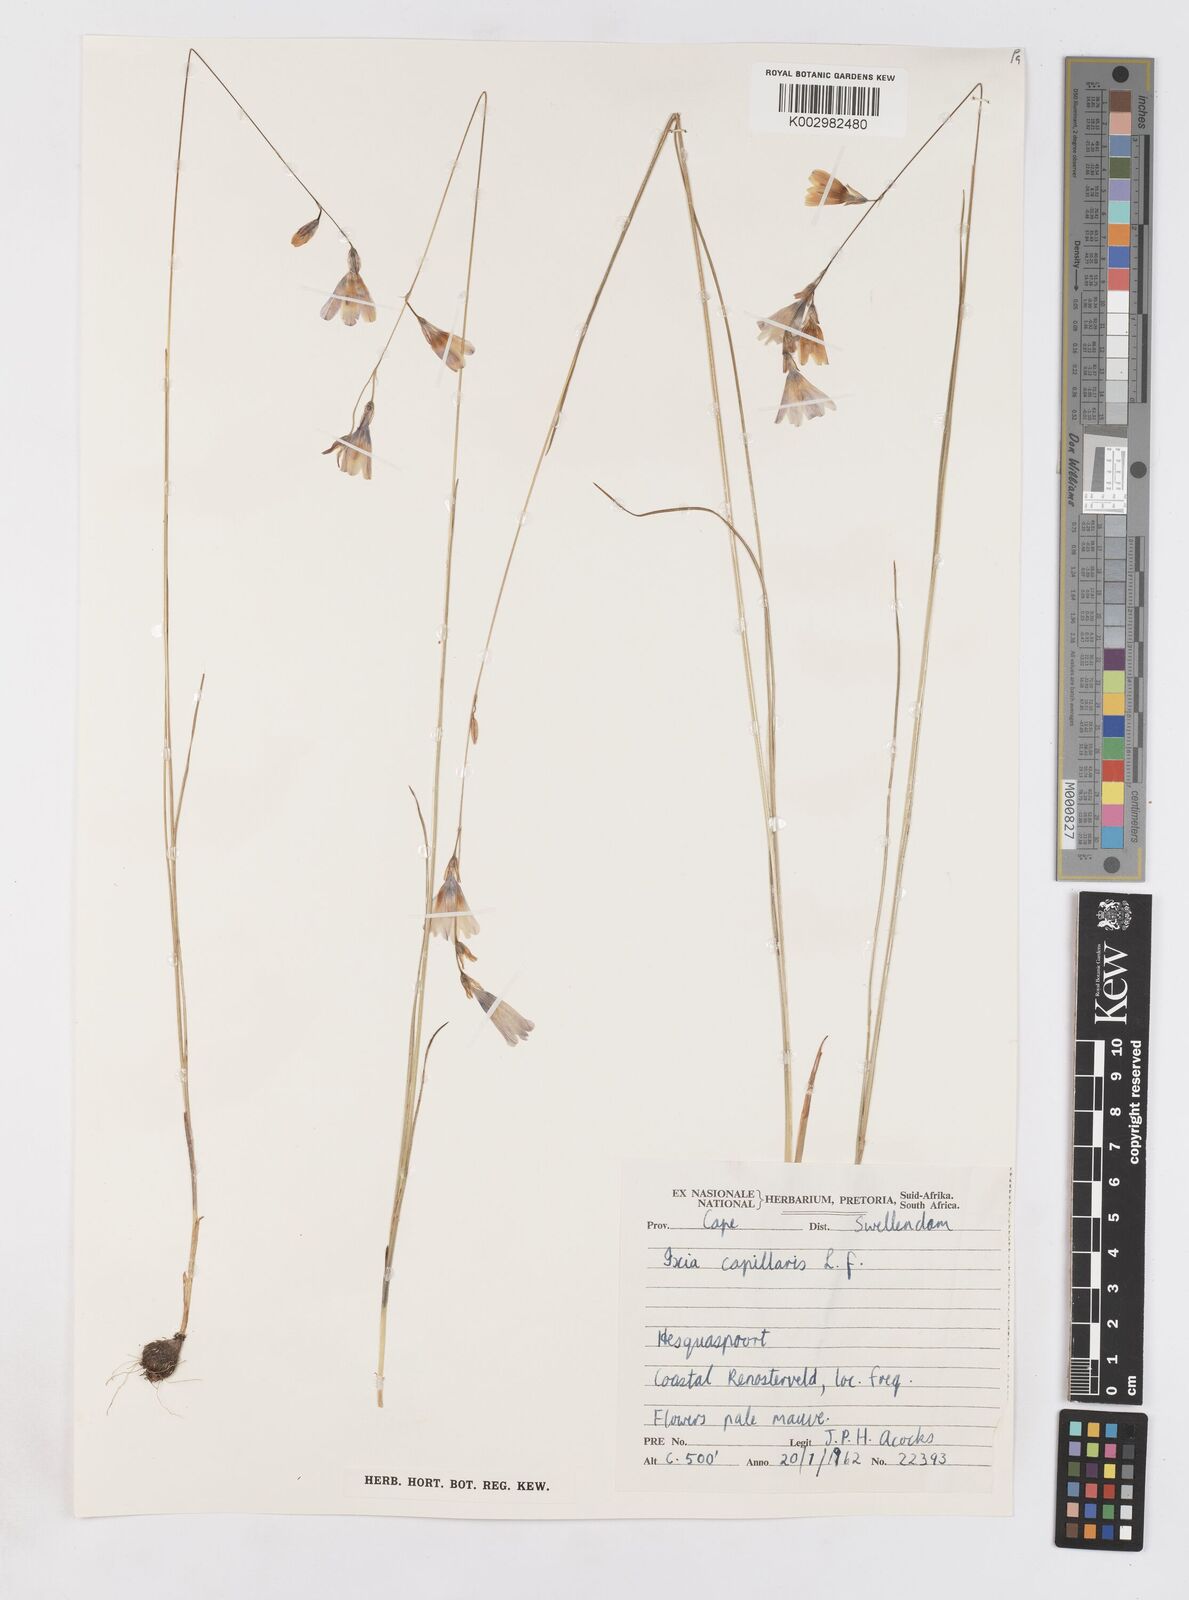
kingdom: Plantae
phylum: Tracheophyta
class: Liliopsida
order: Asparagales
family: Iridaceae
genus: Ixia
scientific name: Ixia capillaris
